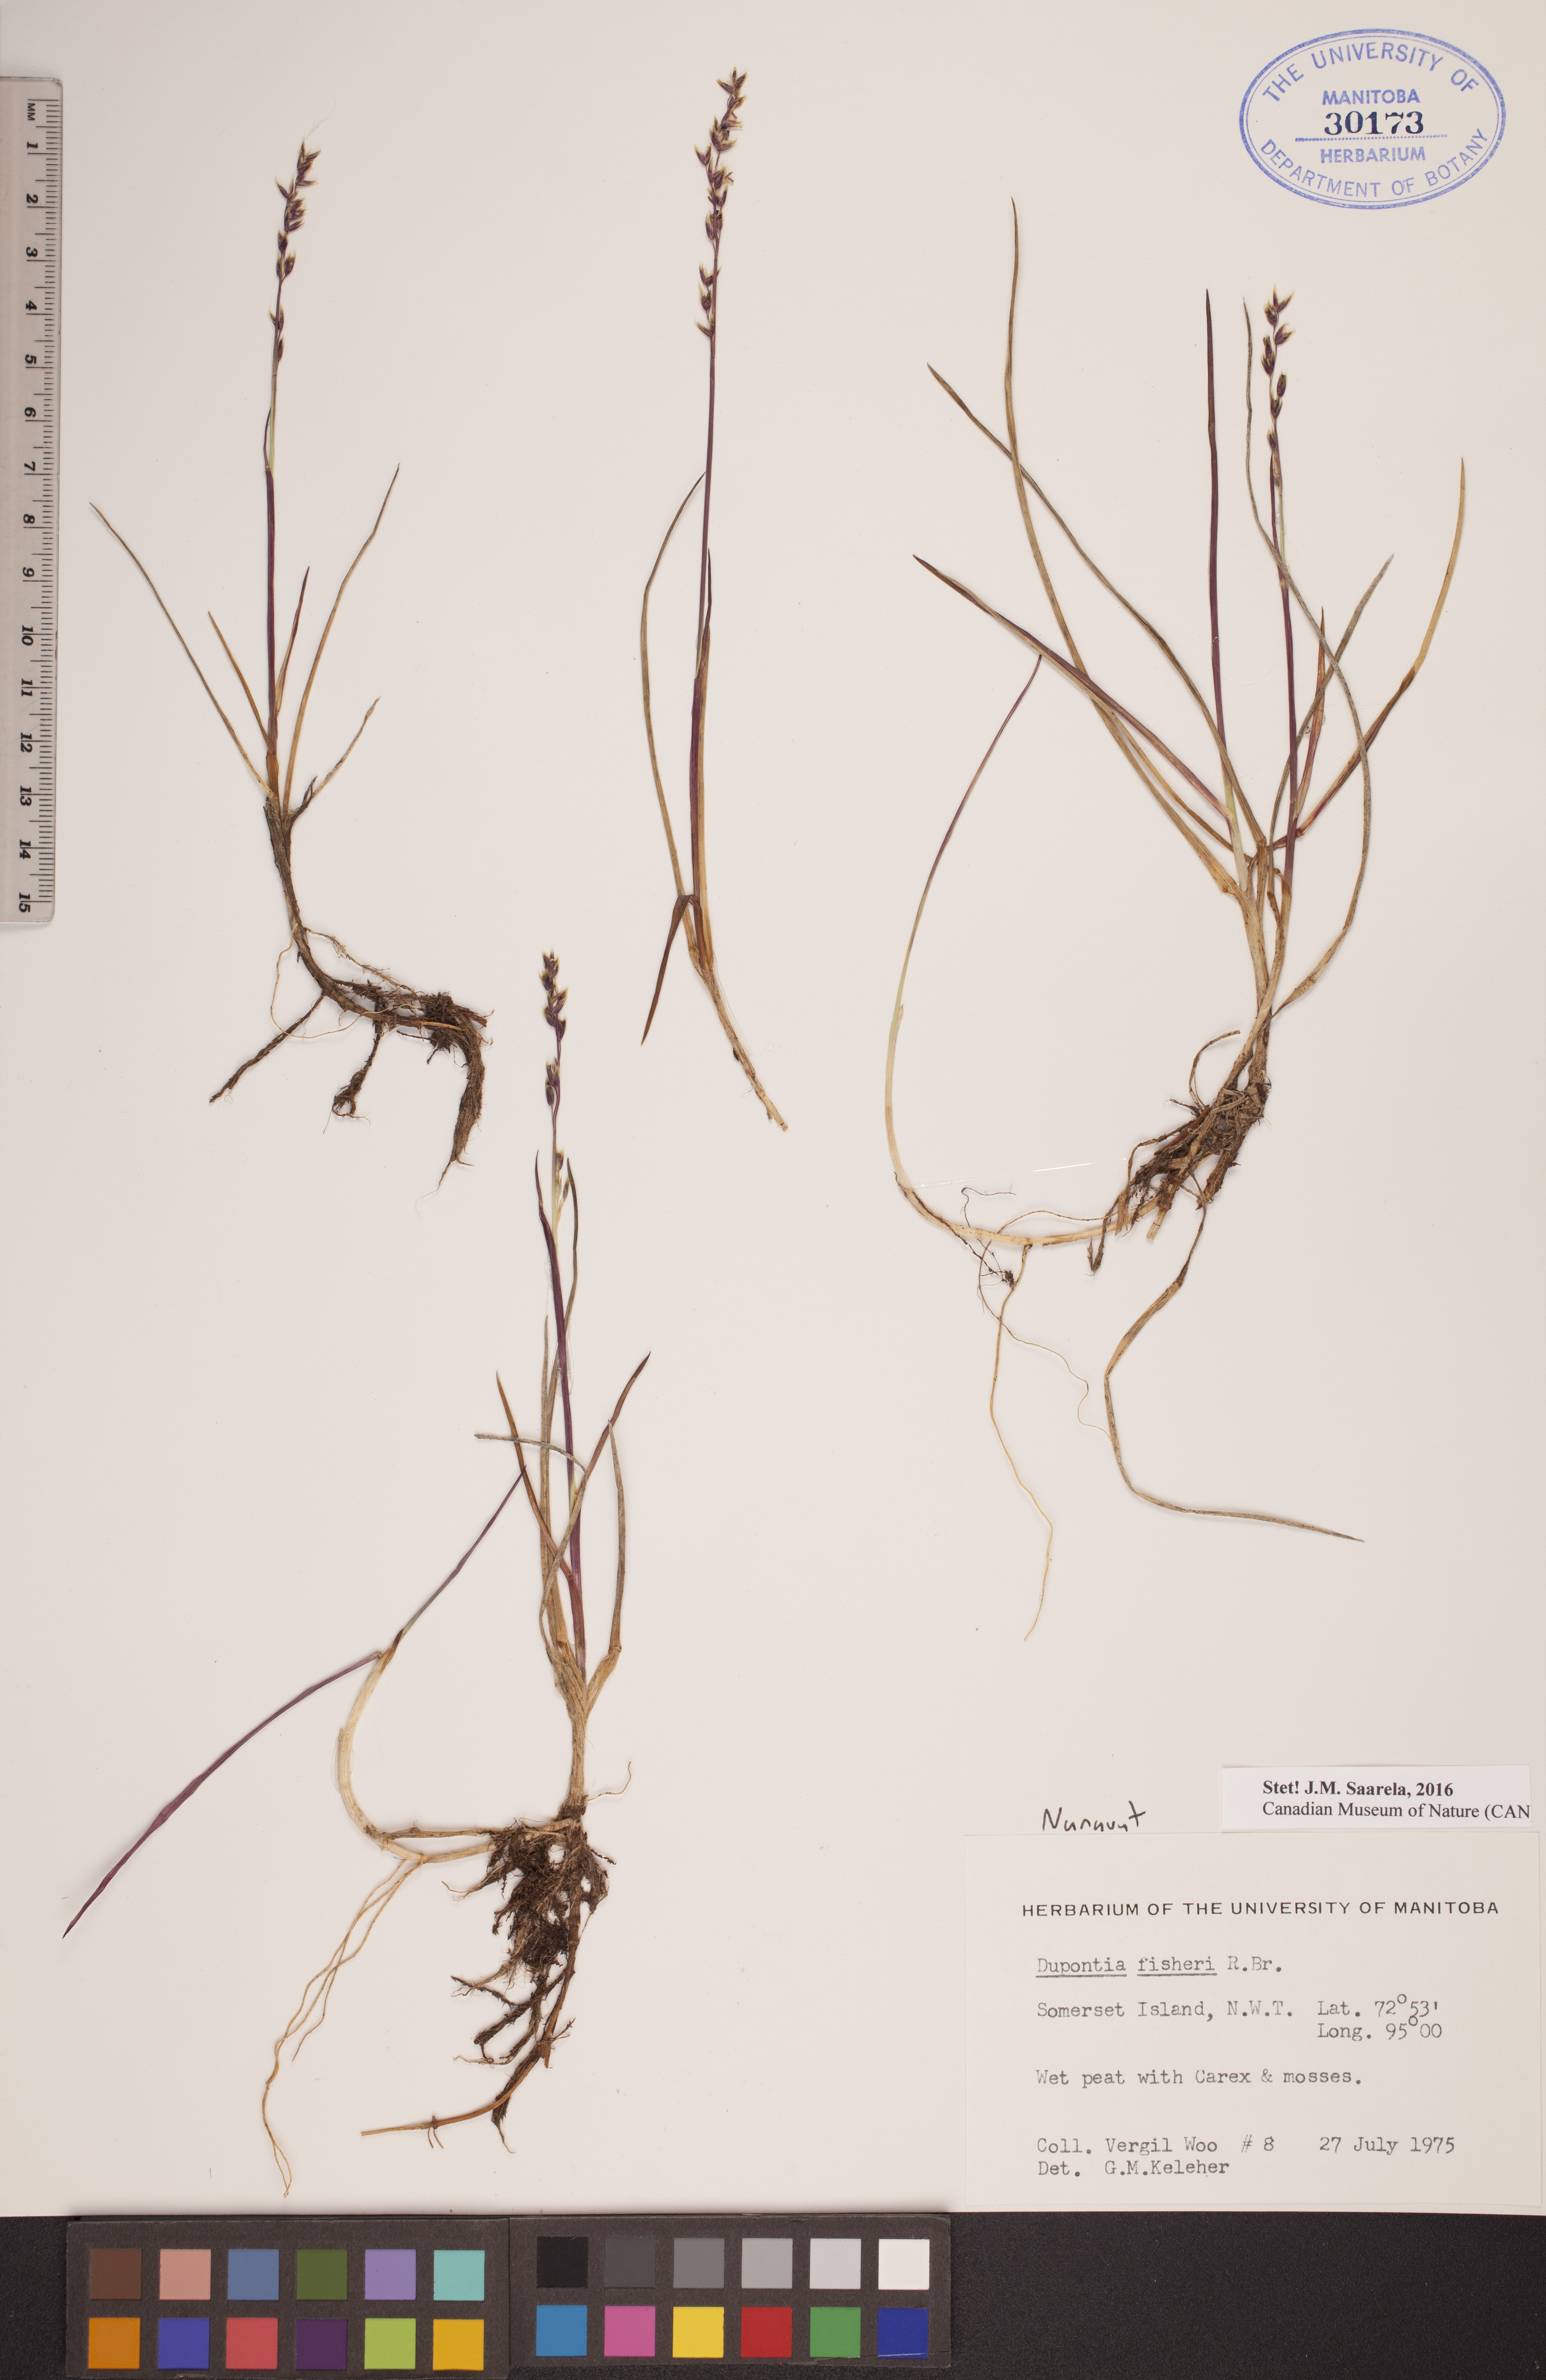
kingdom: Plantae
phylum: Tracheophyta
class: Liliopsida
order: Poales
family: Poaceae
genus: Dupontia
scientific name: Dupontia fisheri
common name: Tundra grass
